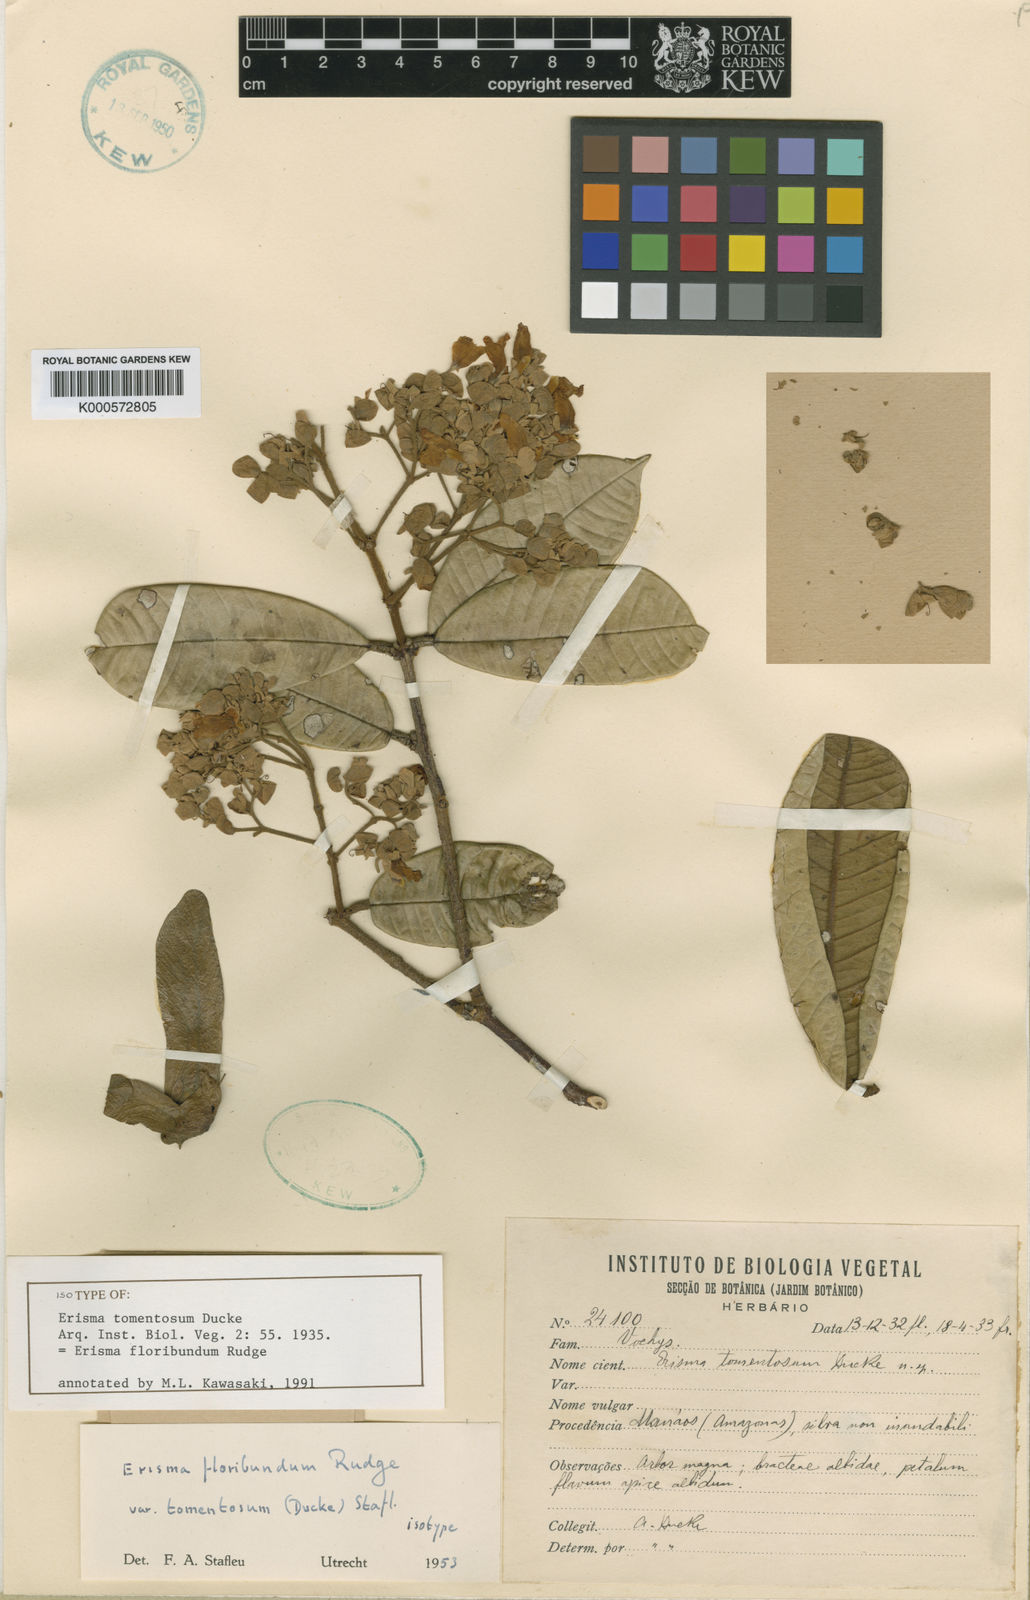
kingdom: Plantae
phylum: Tracheophyta
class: Magnoliopsida
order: Myrtales
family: Vochysiaceae
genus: Erisma
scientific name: Erisma floribundum
